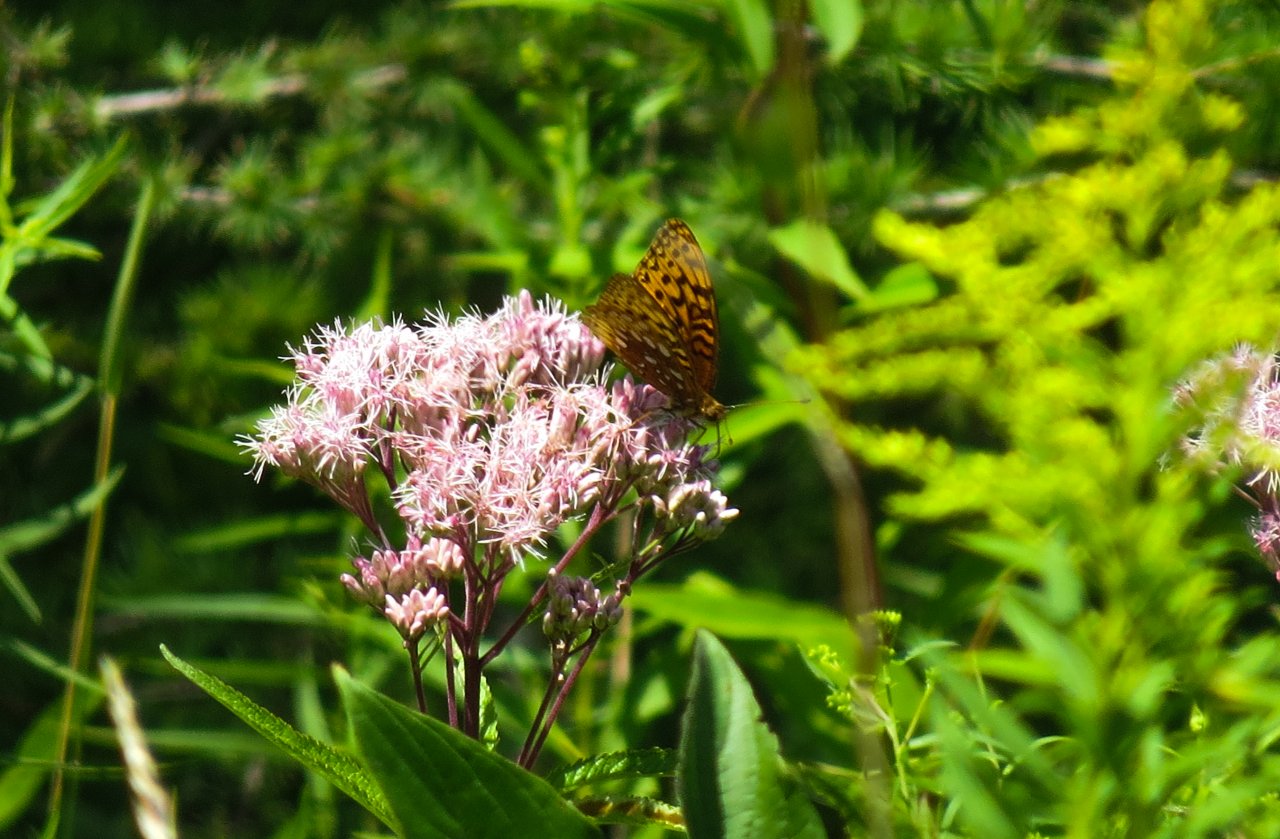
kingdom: Animalia
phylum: Arthropoda
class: Insecta
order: Lepidoptera
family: Nymphalidae
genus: Speyeria
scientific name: Speyeria aphrodite
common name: Aphrodite Fritillary
